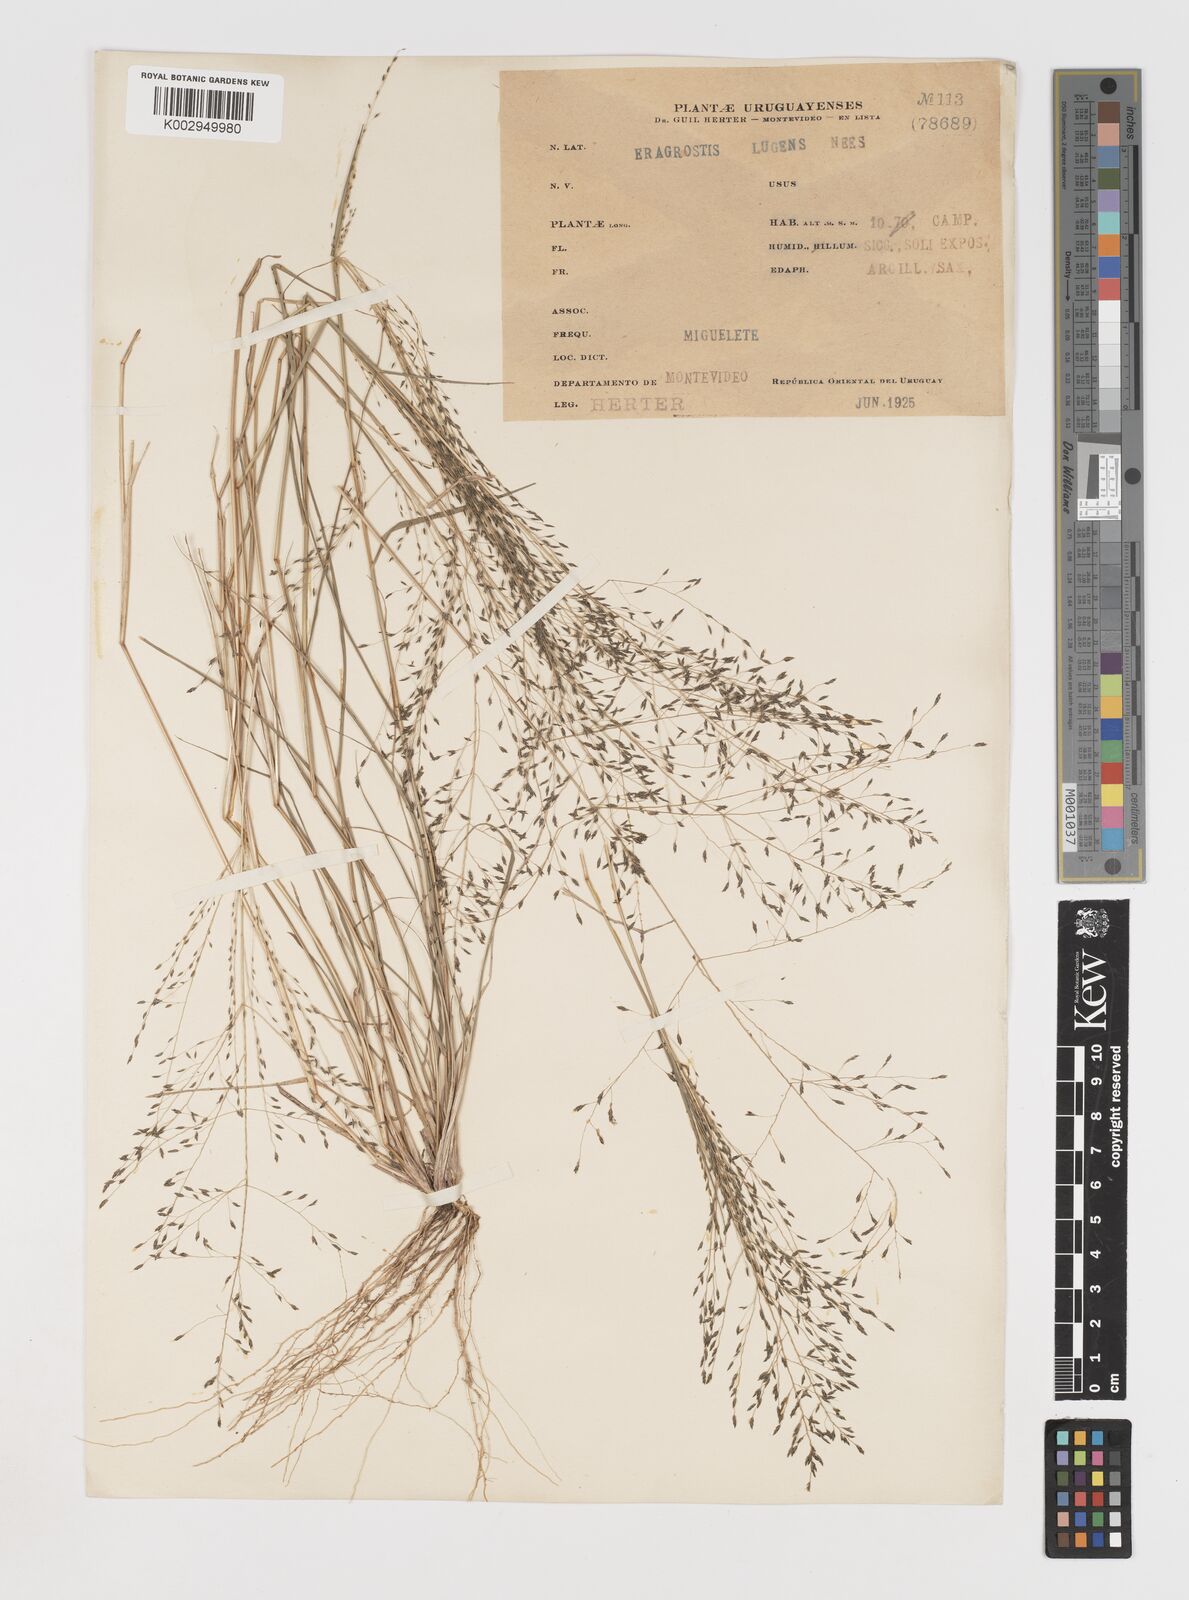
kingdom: Plantae
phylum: Tracheophyta
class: Liliopsida
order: Poales
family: Poaceae
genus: Eragrostis
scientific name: Eragrostis
